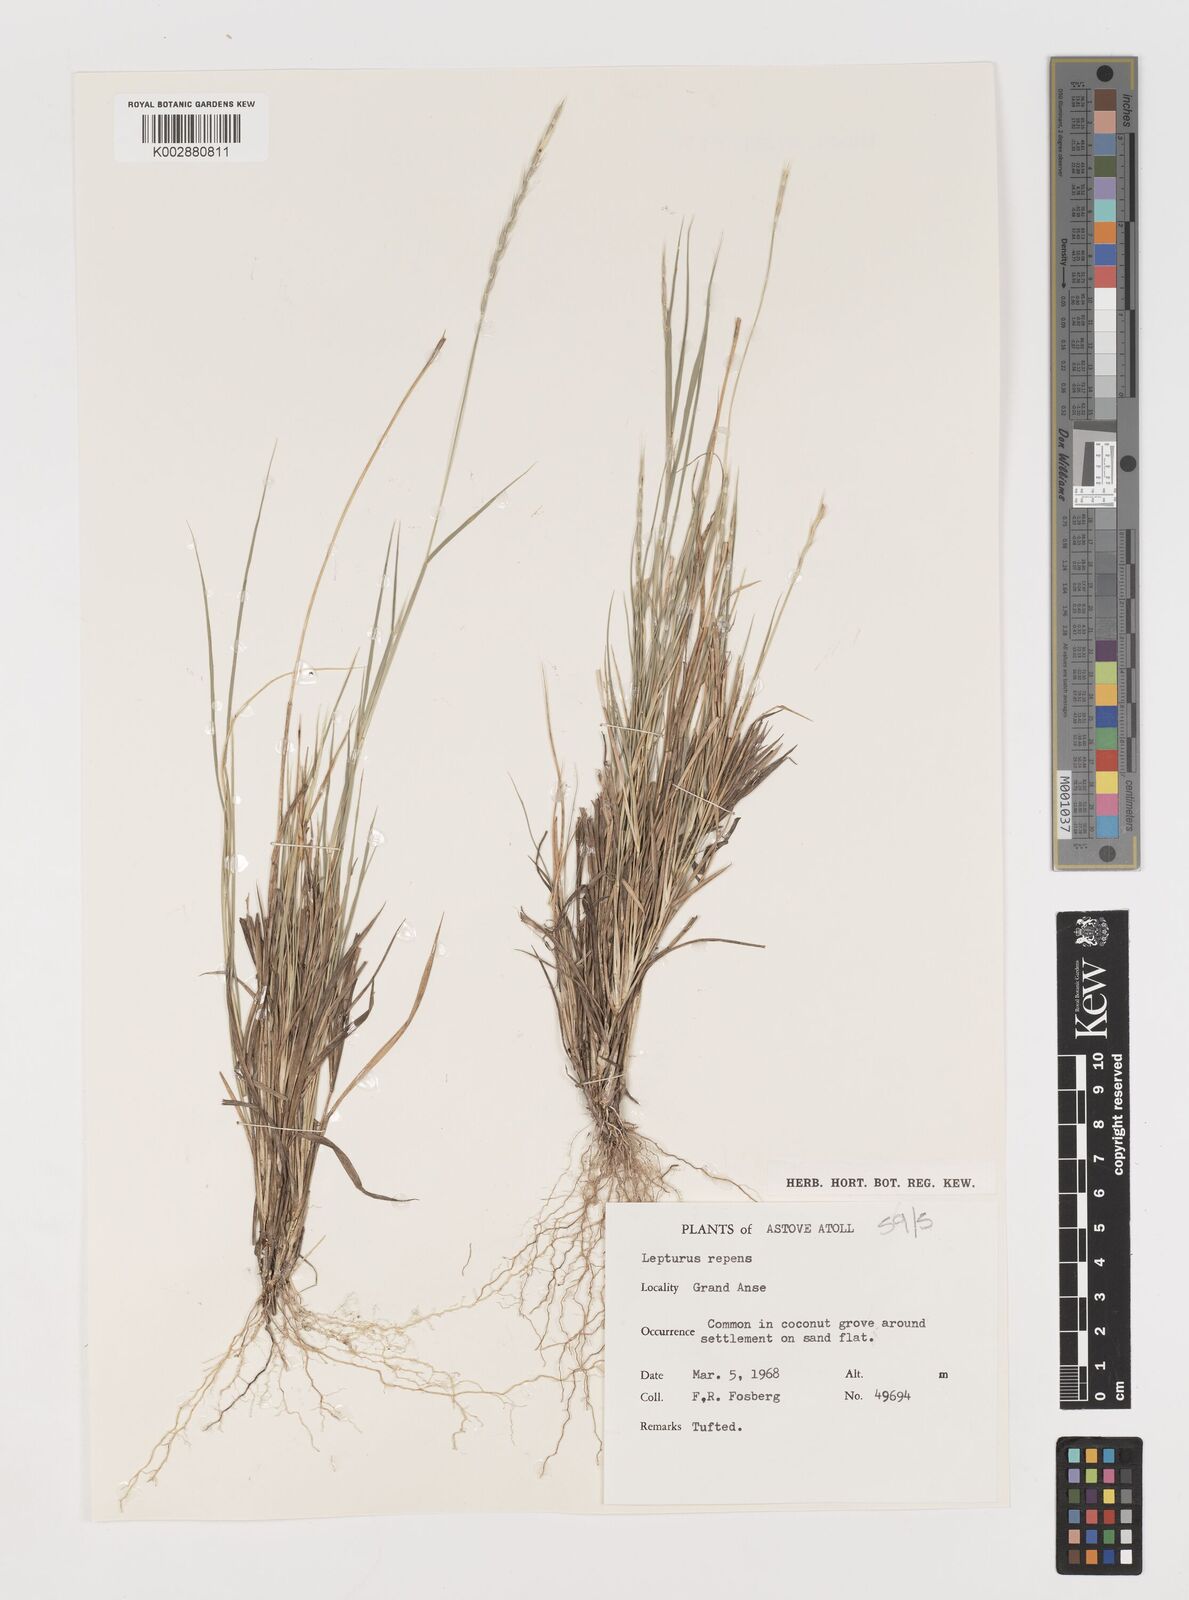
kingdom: Plantae
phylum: Tracheophyta
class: Liliopsida
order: Poales
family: Poaceae
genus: Lepturus
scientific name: Lepturus repens
